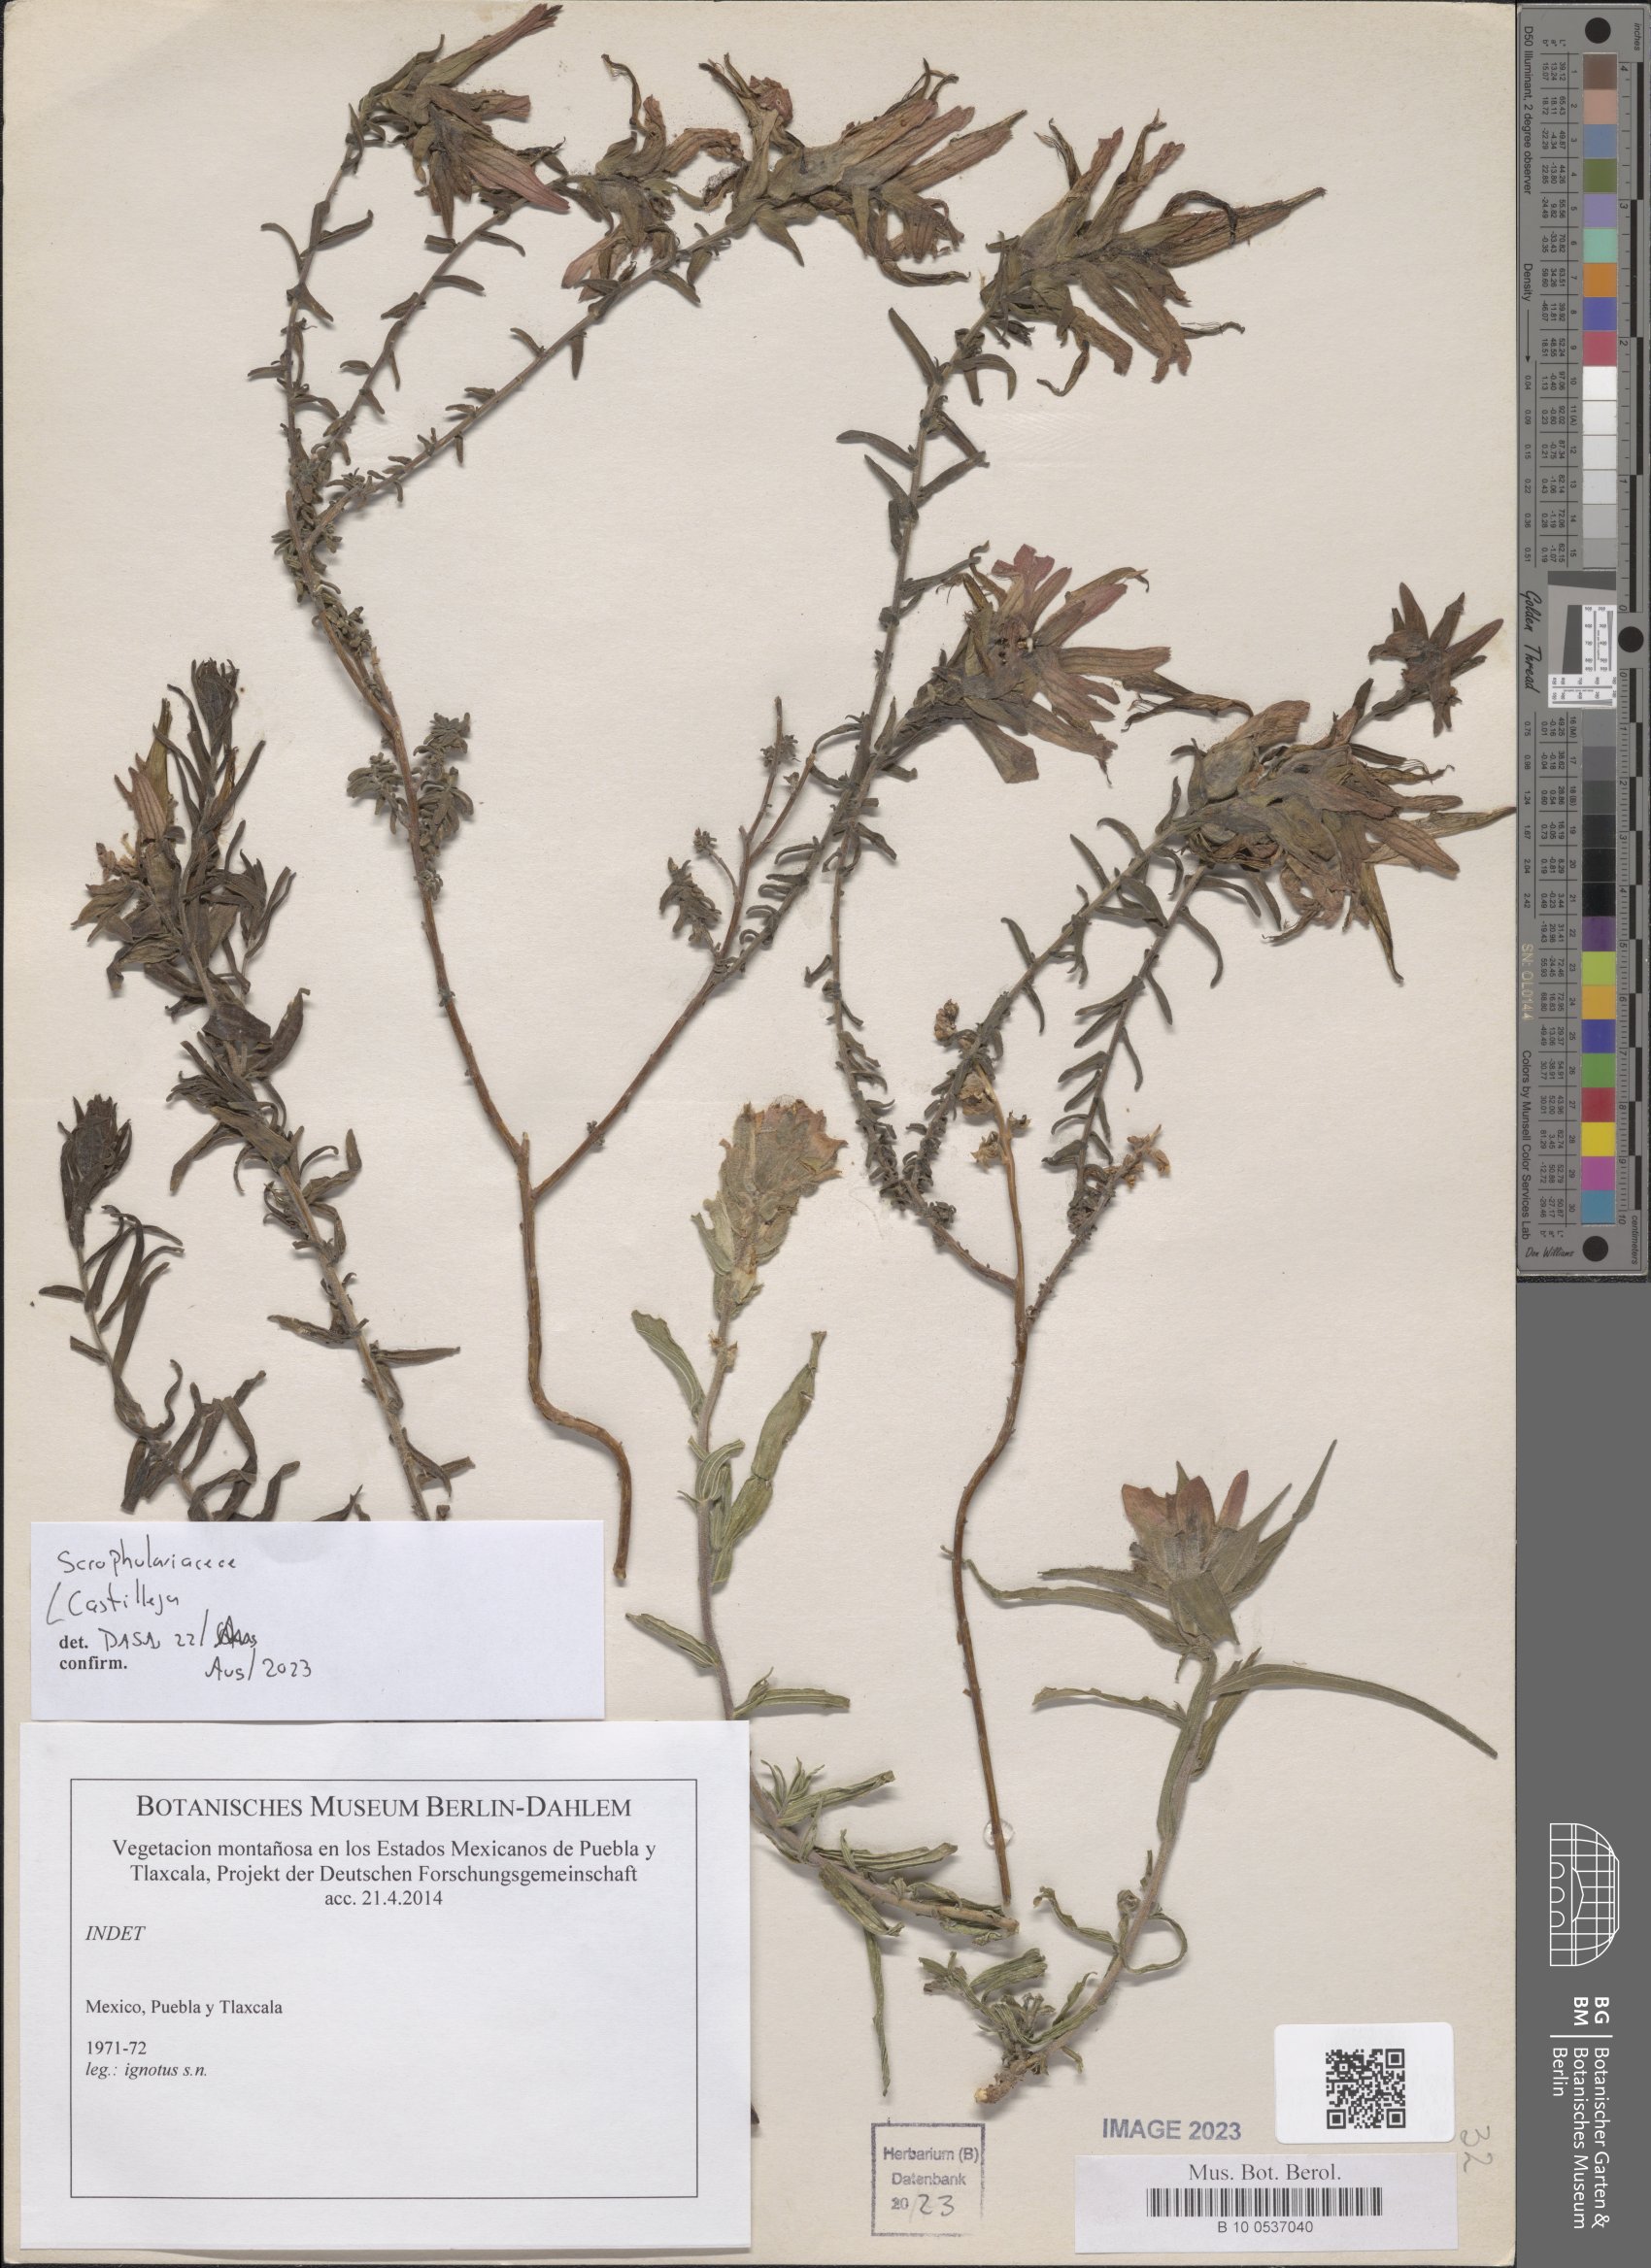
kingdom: Plantae
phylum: Tracheophyta
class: Magnoliopsida
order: Lamiales
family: Orobanchaceae
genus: Castilleja
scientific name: Castilleja
